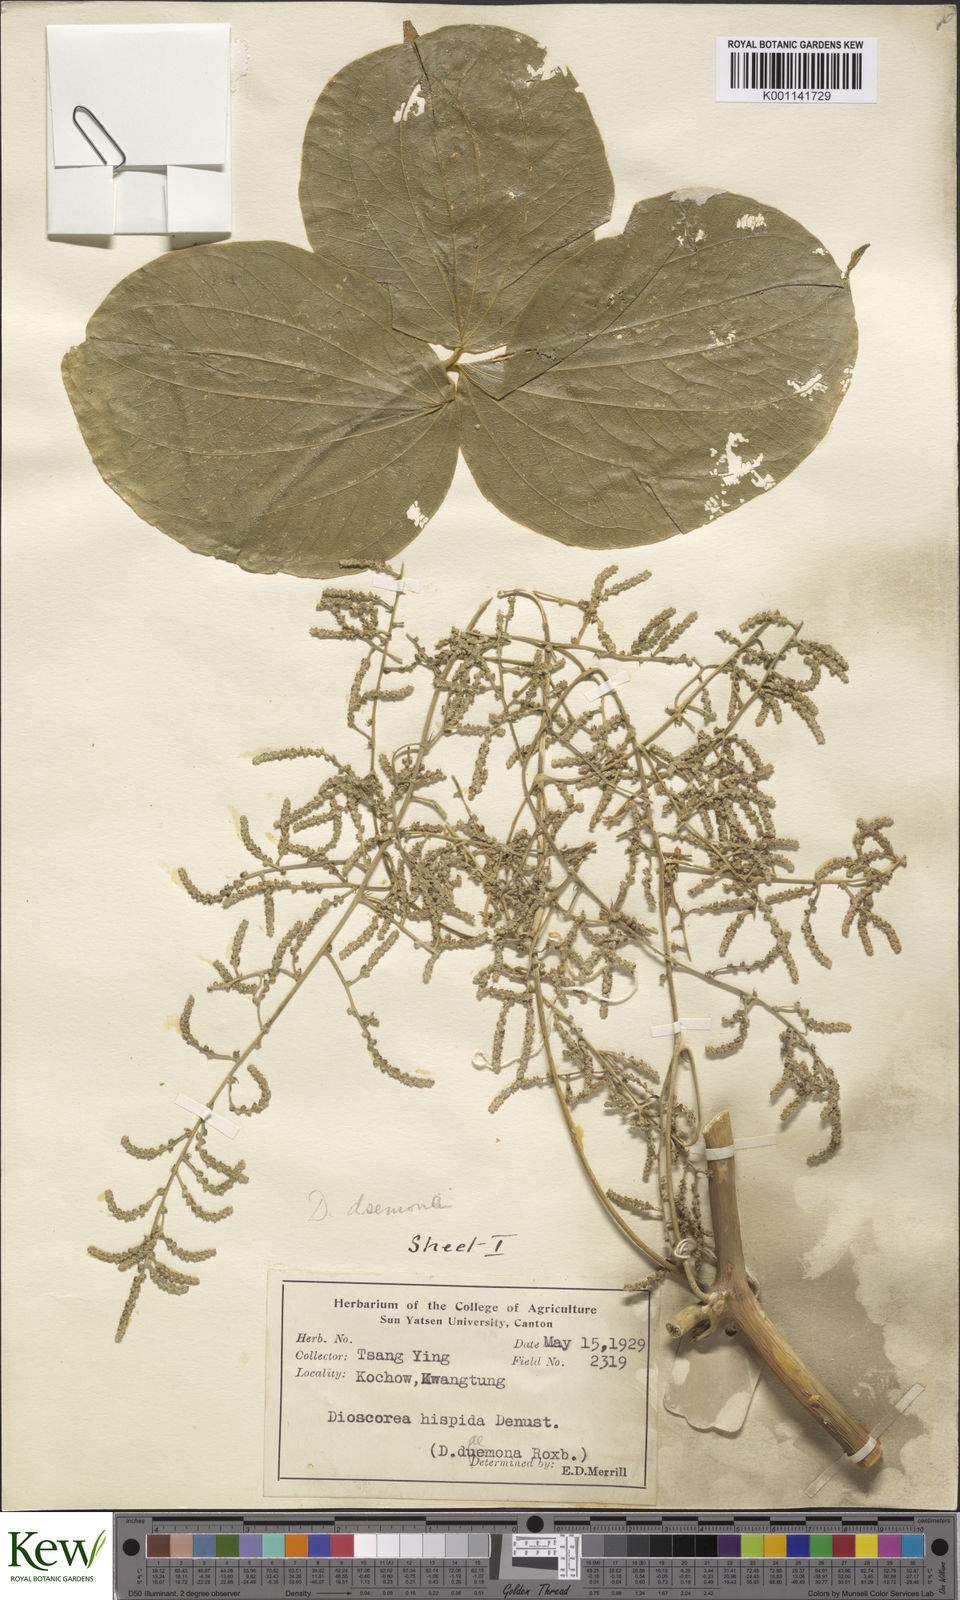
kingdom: Plantae
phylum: Tracheophyta
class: Liliopsida
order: Dioscoreales
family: Dioscoreaceae
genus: Dioscorea
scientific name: Dioscorea hispida
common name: Asiatic bitter yam
